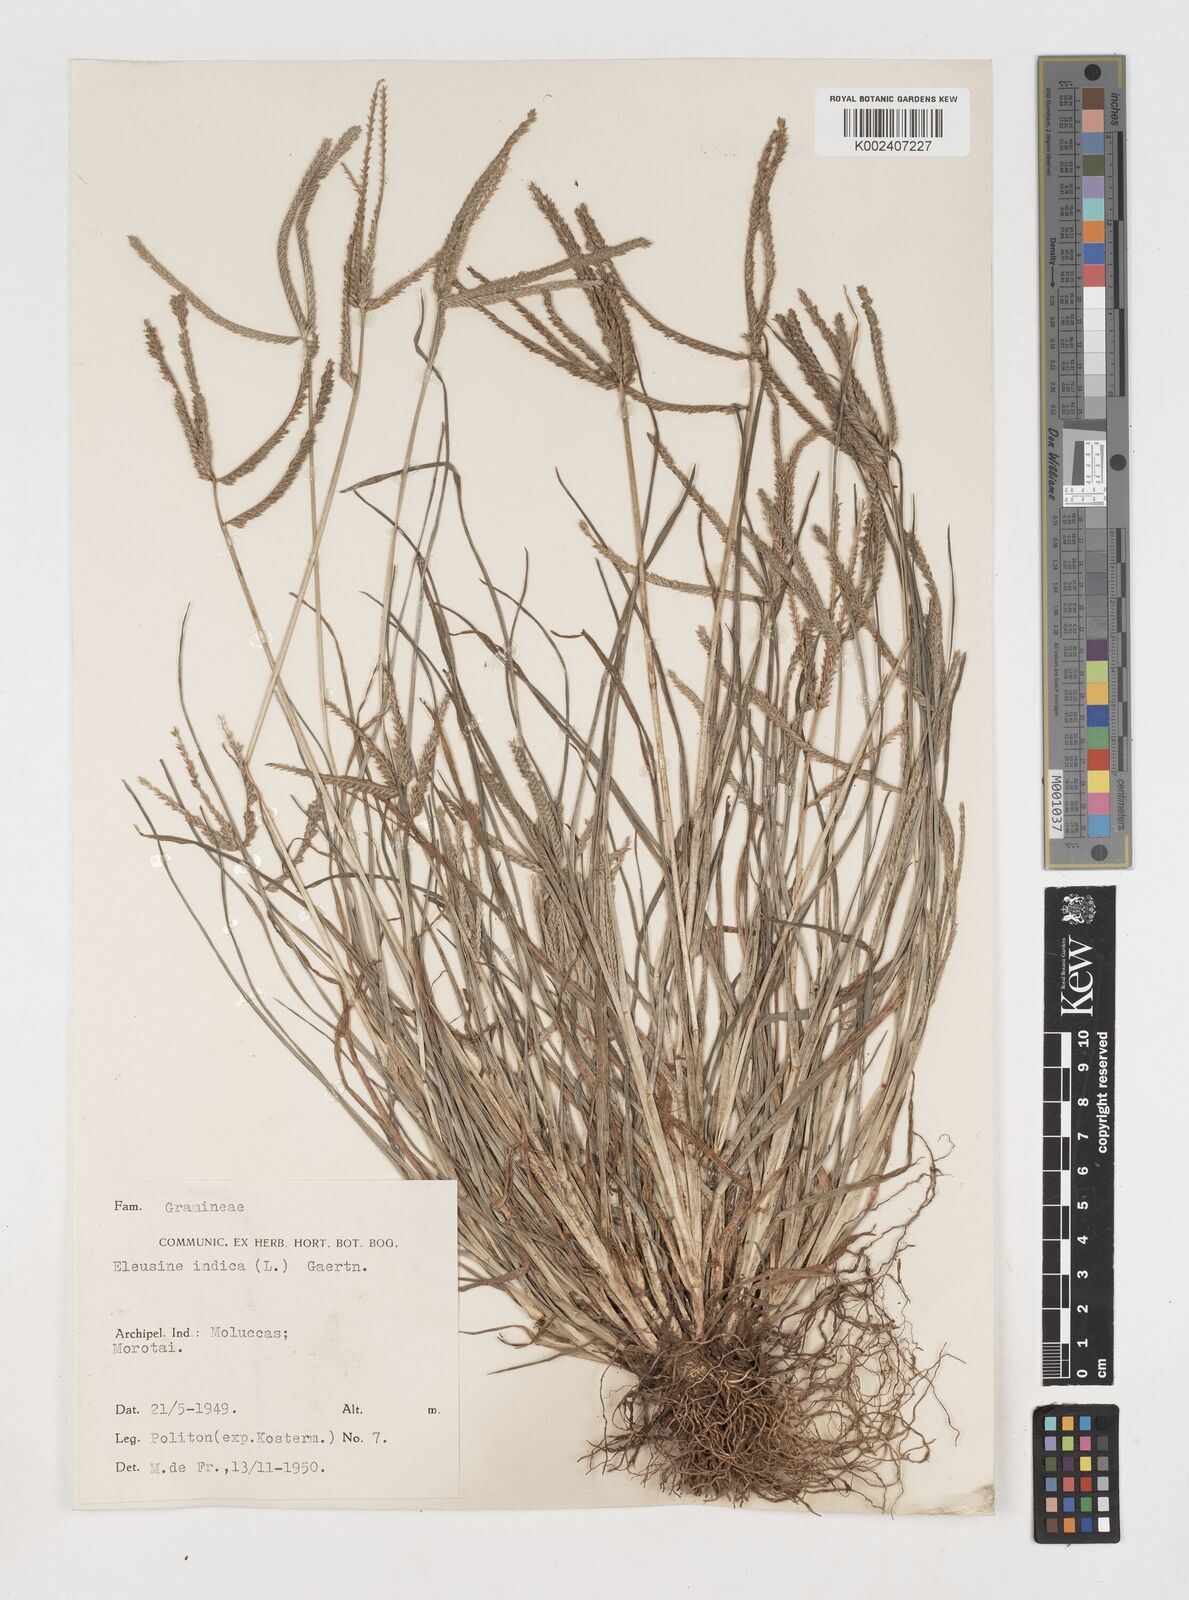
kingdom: Plantae
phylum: Tracheophyta
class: Liliopsida
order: Poales
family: Poaceae
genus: Eleusine
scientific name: Eleusine indica
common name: Yard-grass
